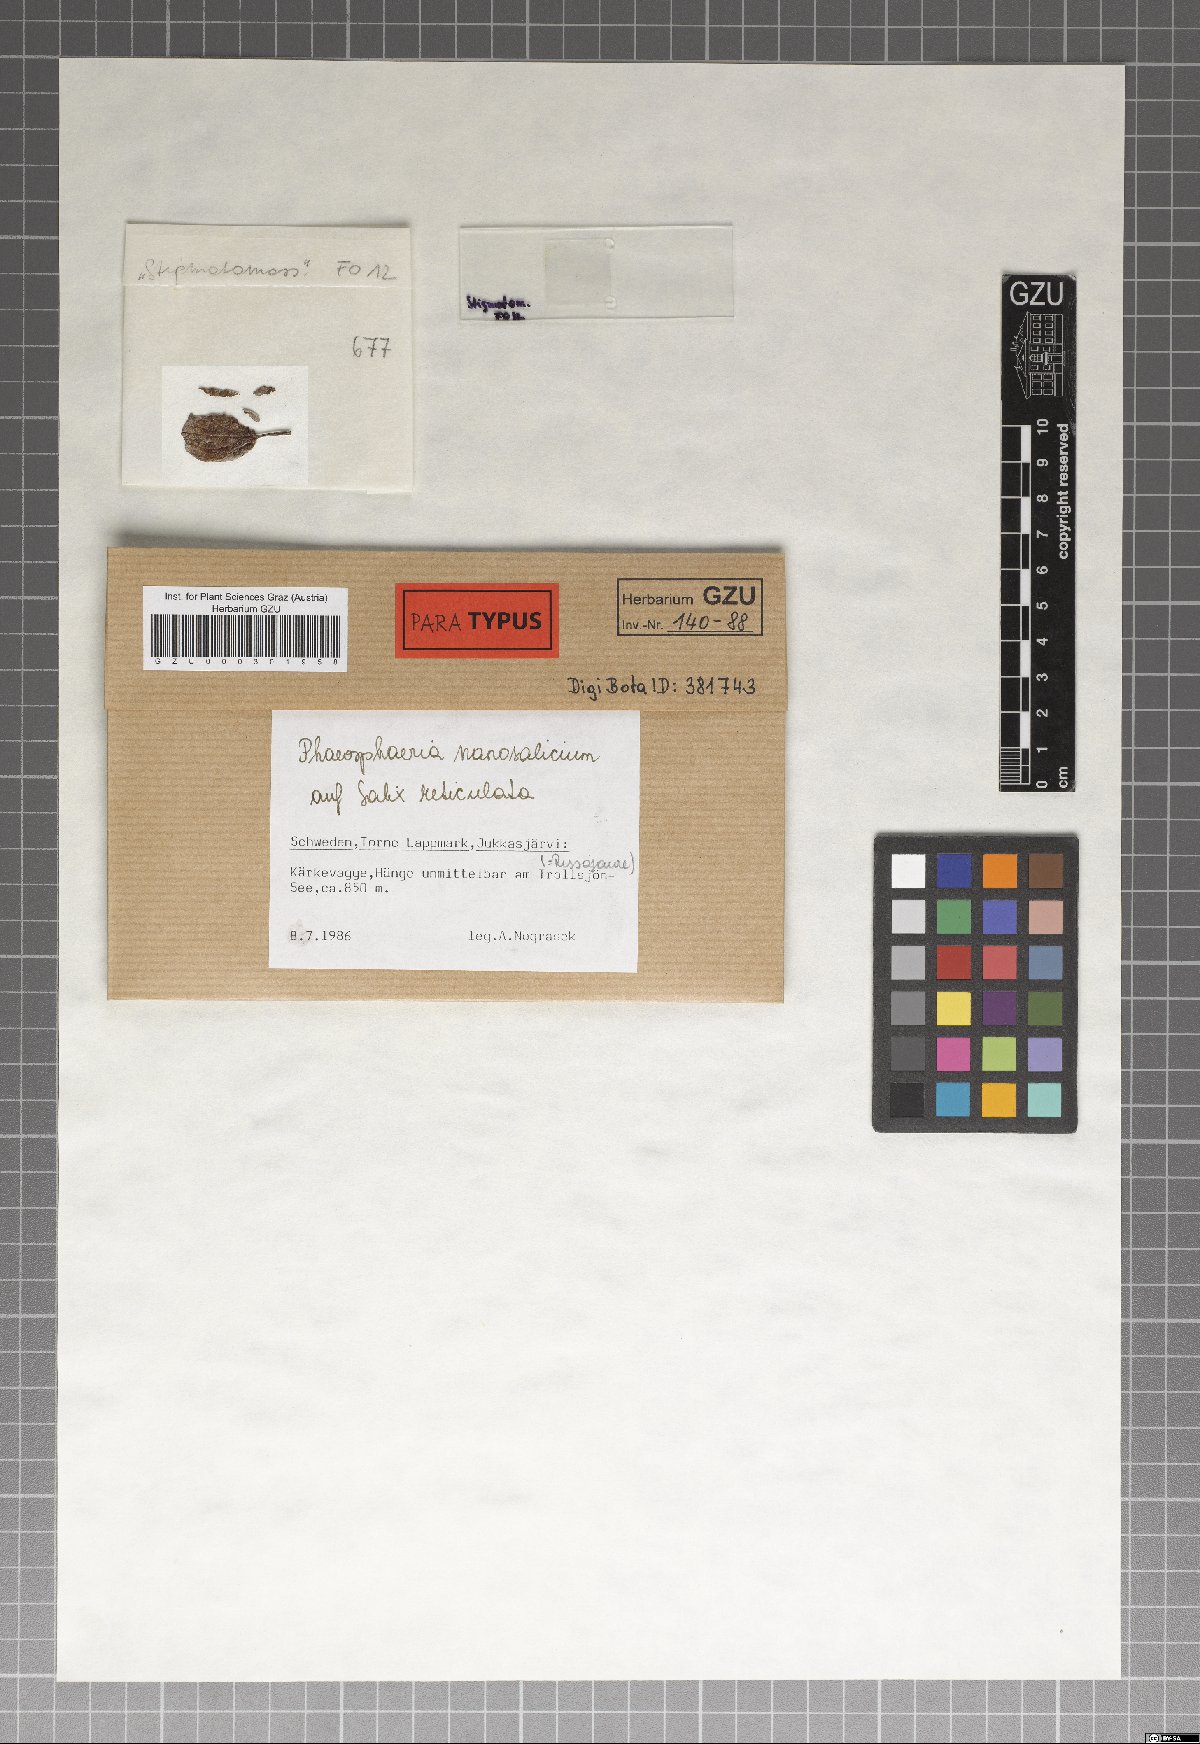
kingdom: Fungi
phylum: Ascomycota
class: Dothideomycetes
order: Pleosporales
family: Phaeosphaeriaceae
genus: Phaeosphaeria
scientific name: Phaeosphaeria nanosalicium
